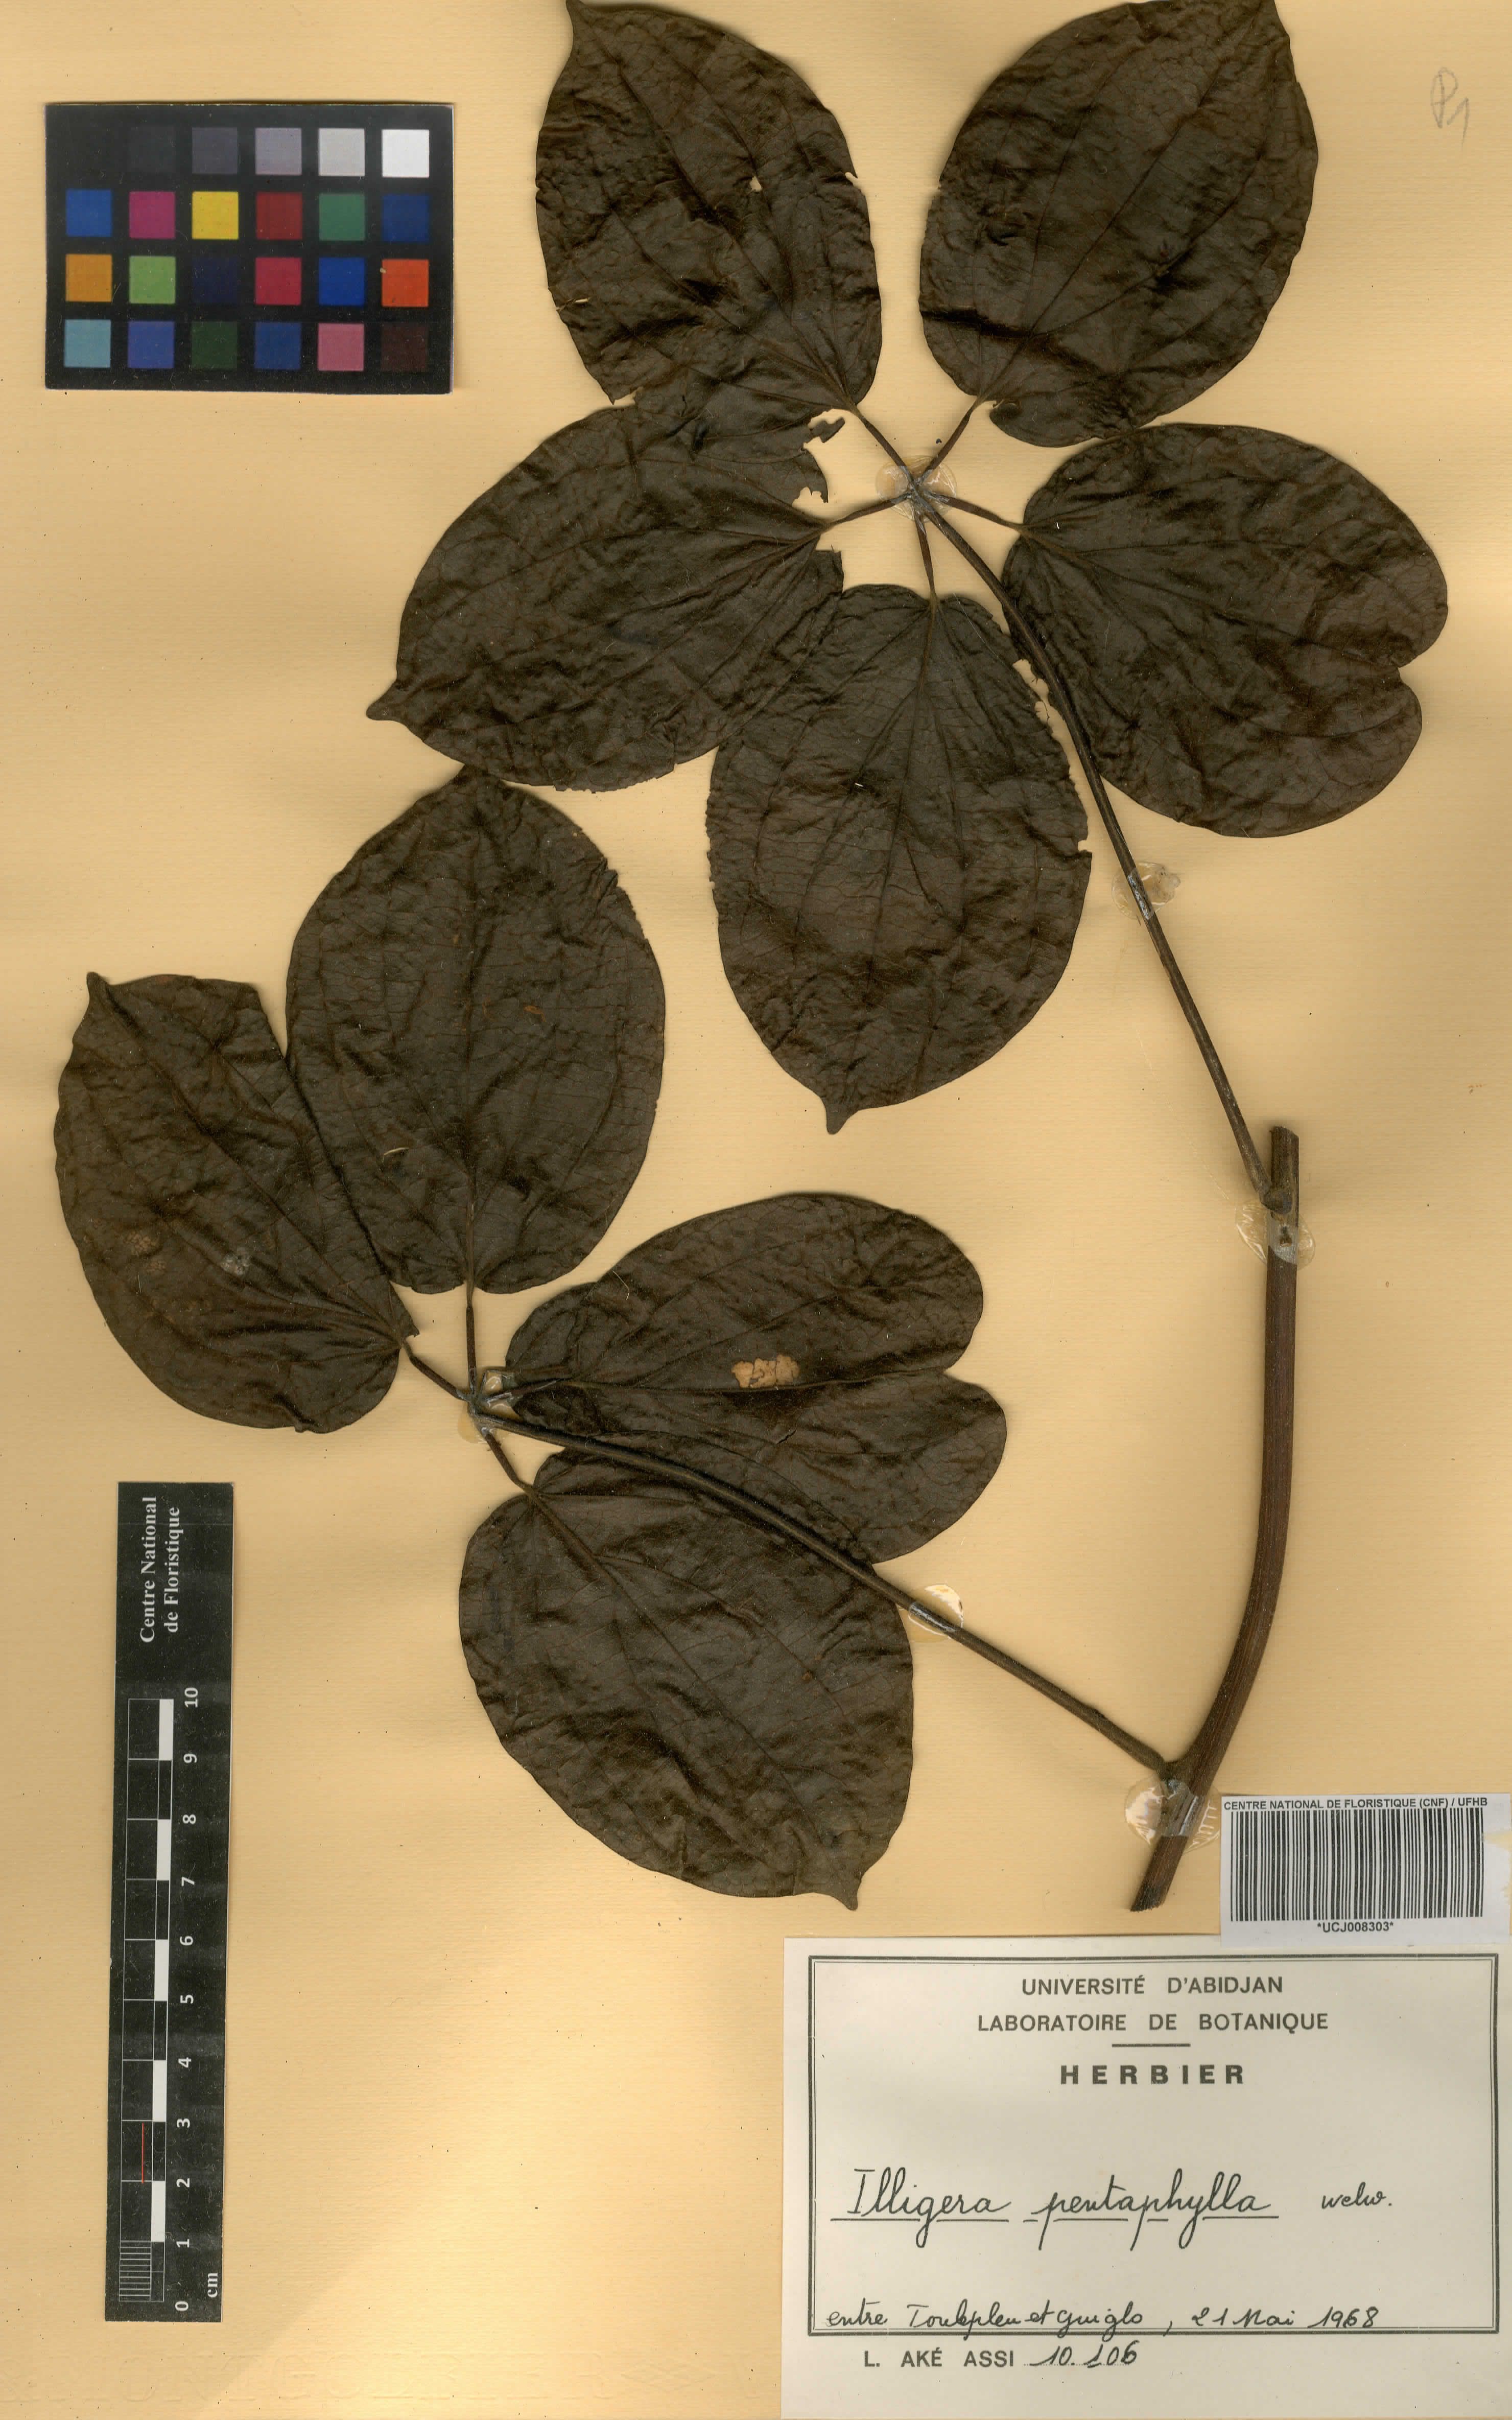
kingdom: Plantae
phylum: Tracheophyta
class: Magnoliopsida
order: Laurales
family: Hernandiaceae
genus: Illigera
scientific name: Illigera pentaphylla
